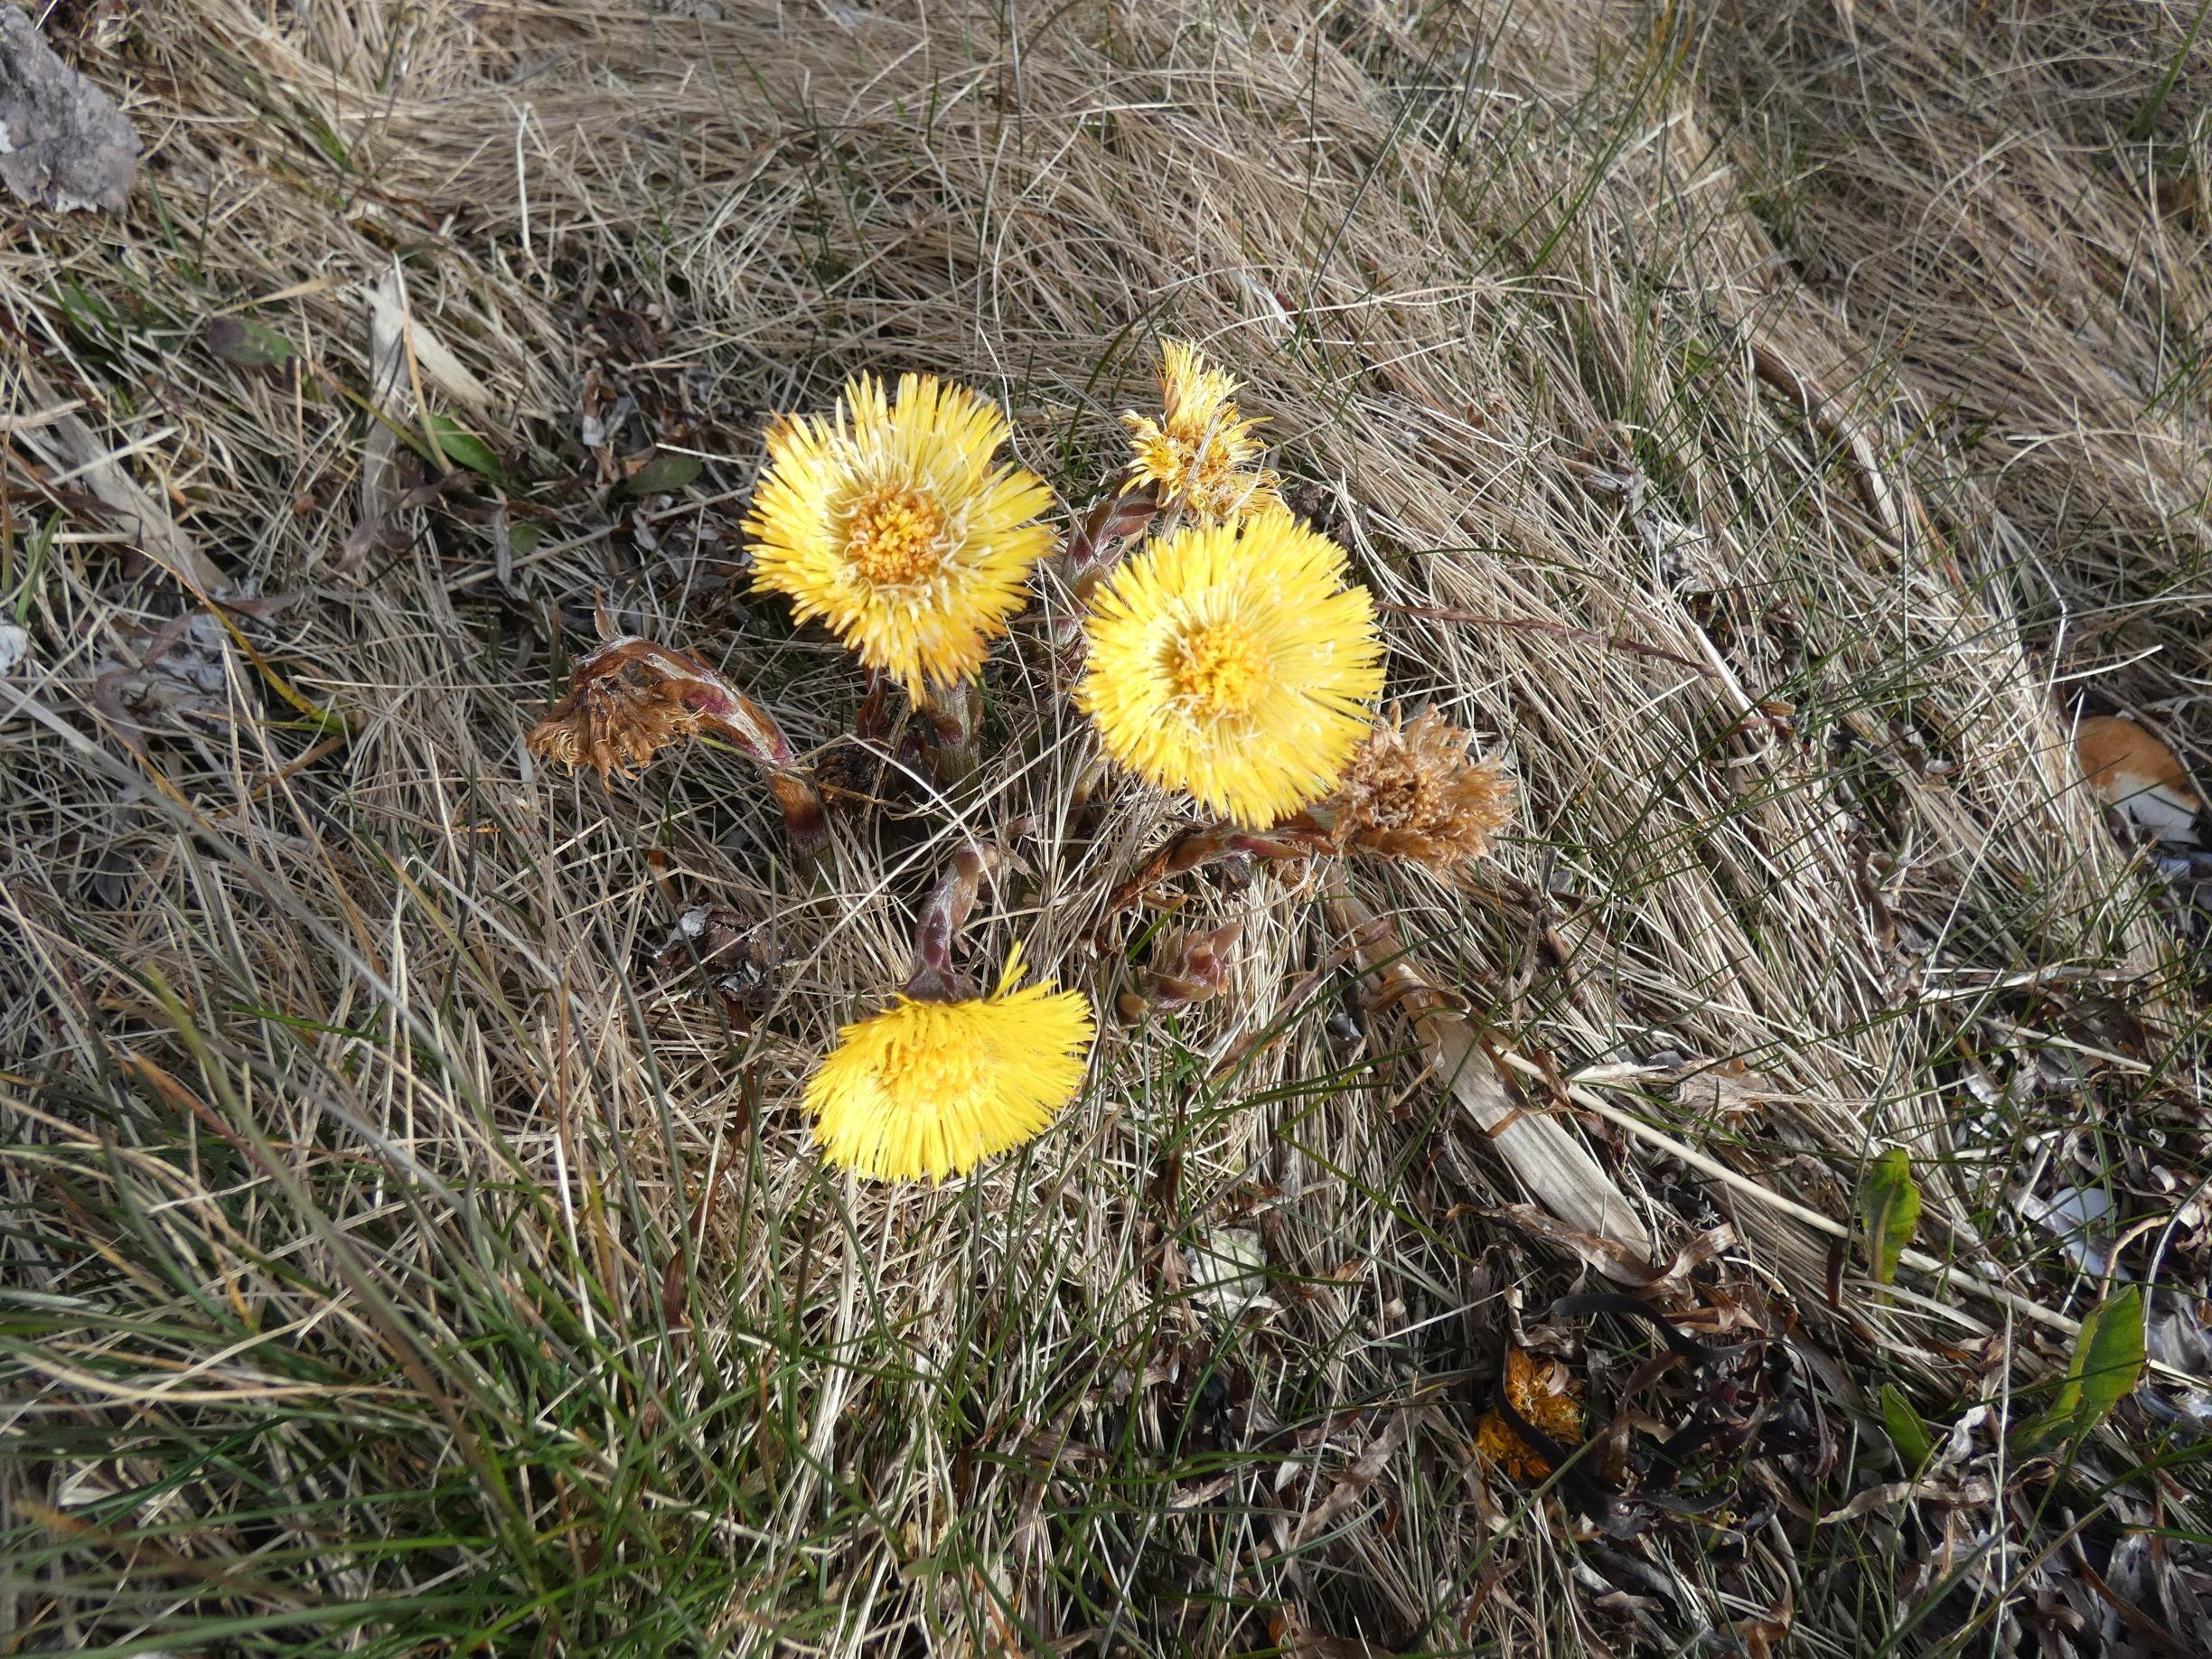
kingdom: Plantae
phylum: Tracheophyta
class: Magnoliopsida
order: Asterales
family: Asteraceae
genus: Tussilago
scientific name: Tussilago farfara
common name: Følfod
